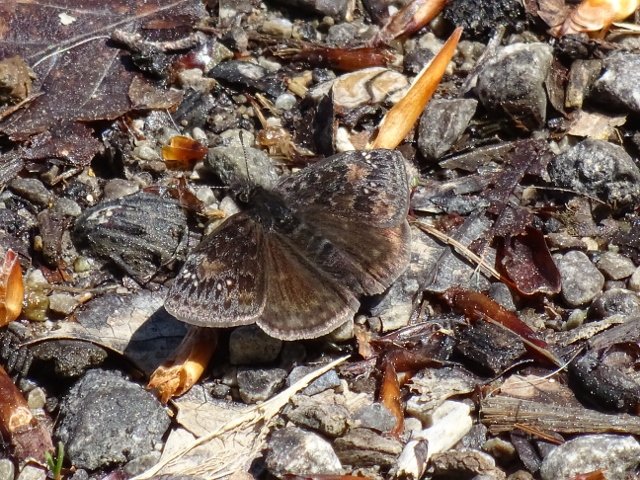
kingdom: Animalia
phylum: Arthropoda
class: Insecta
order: Lepidoptera
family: Hesperiidae
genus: Gesta
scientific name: Gesta
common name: Wild Indigo Duskywing
